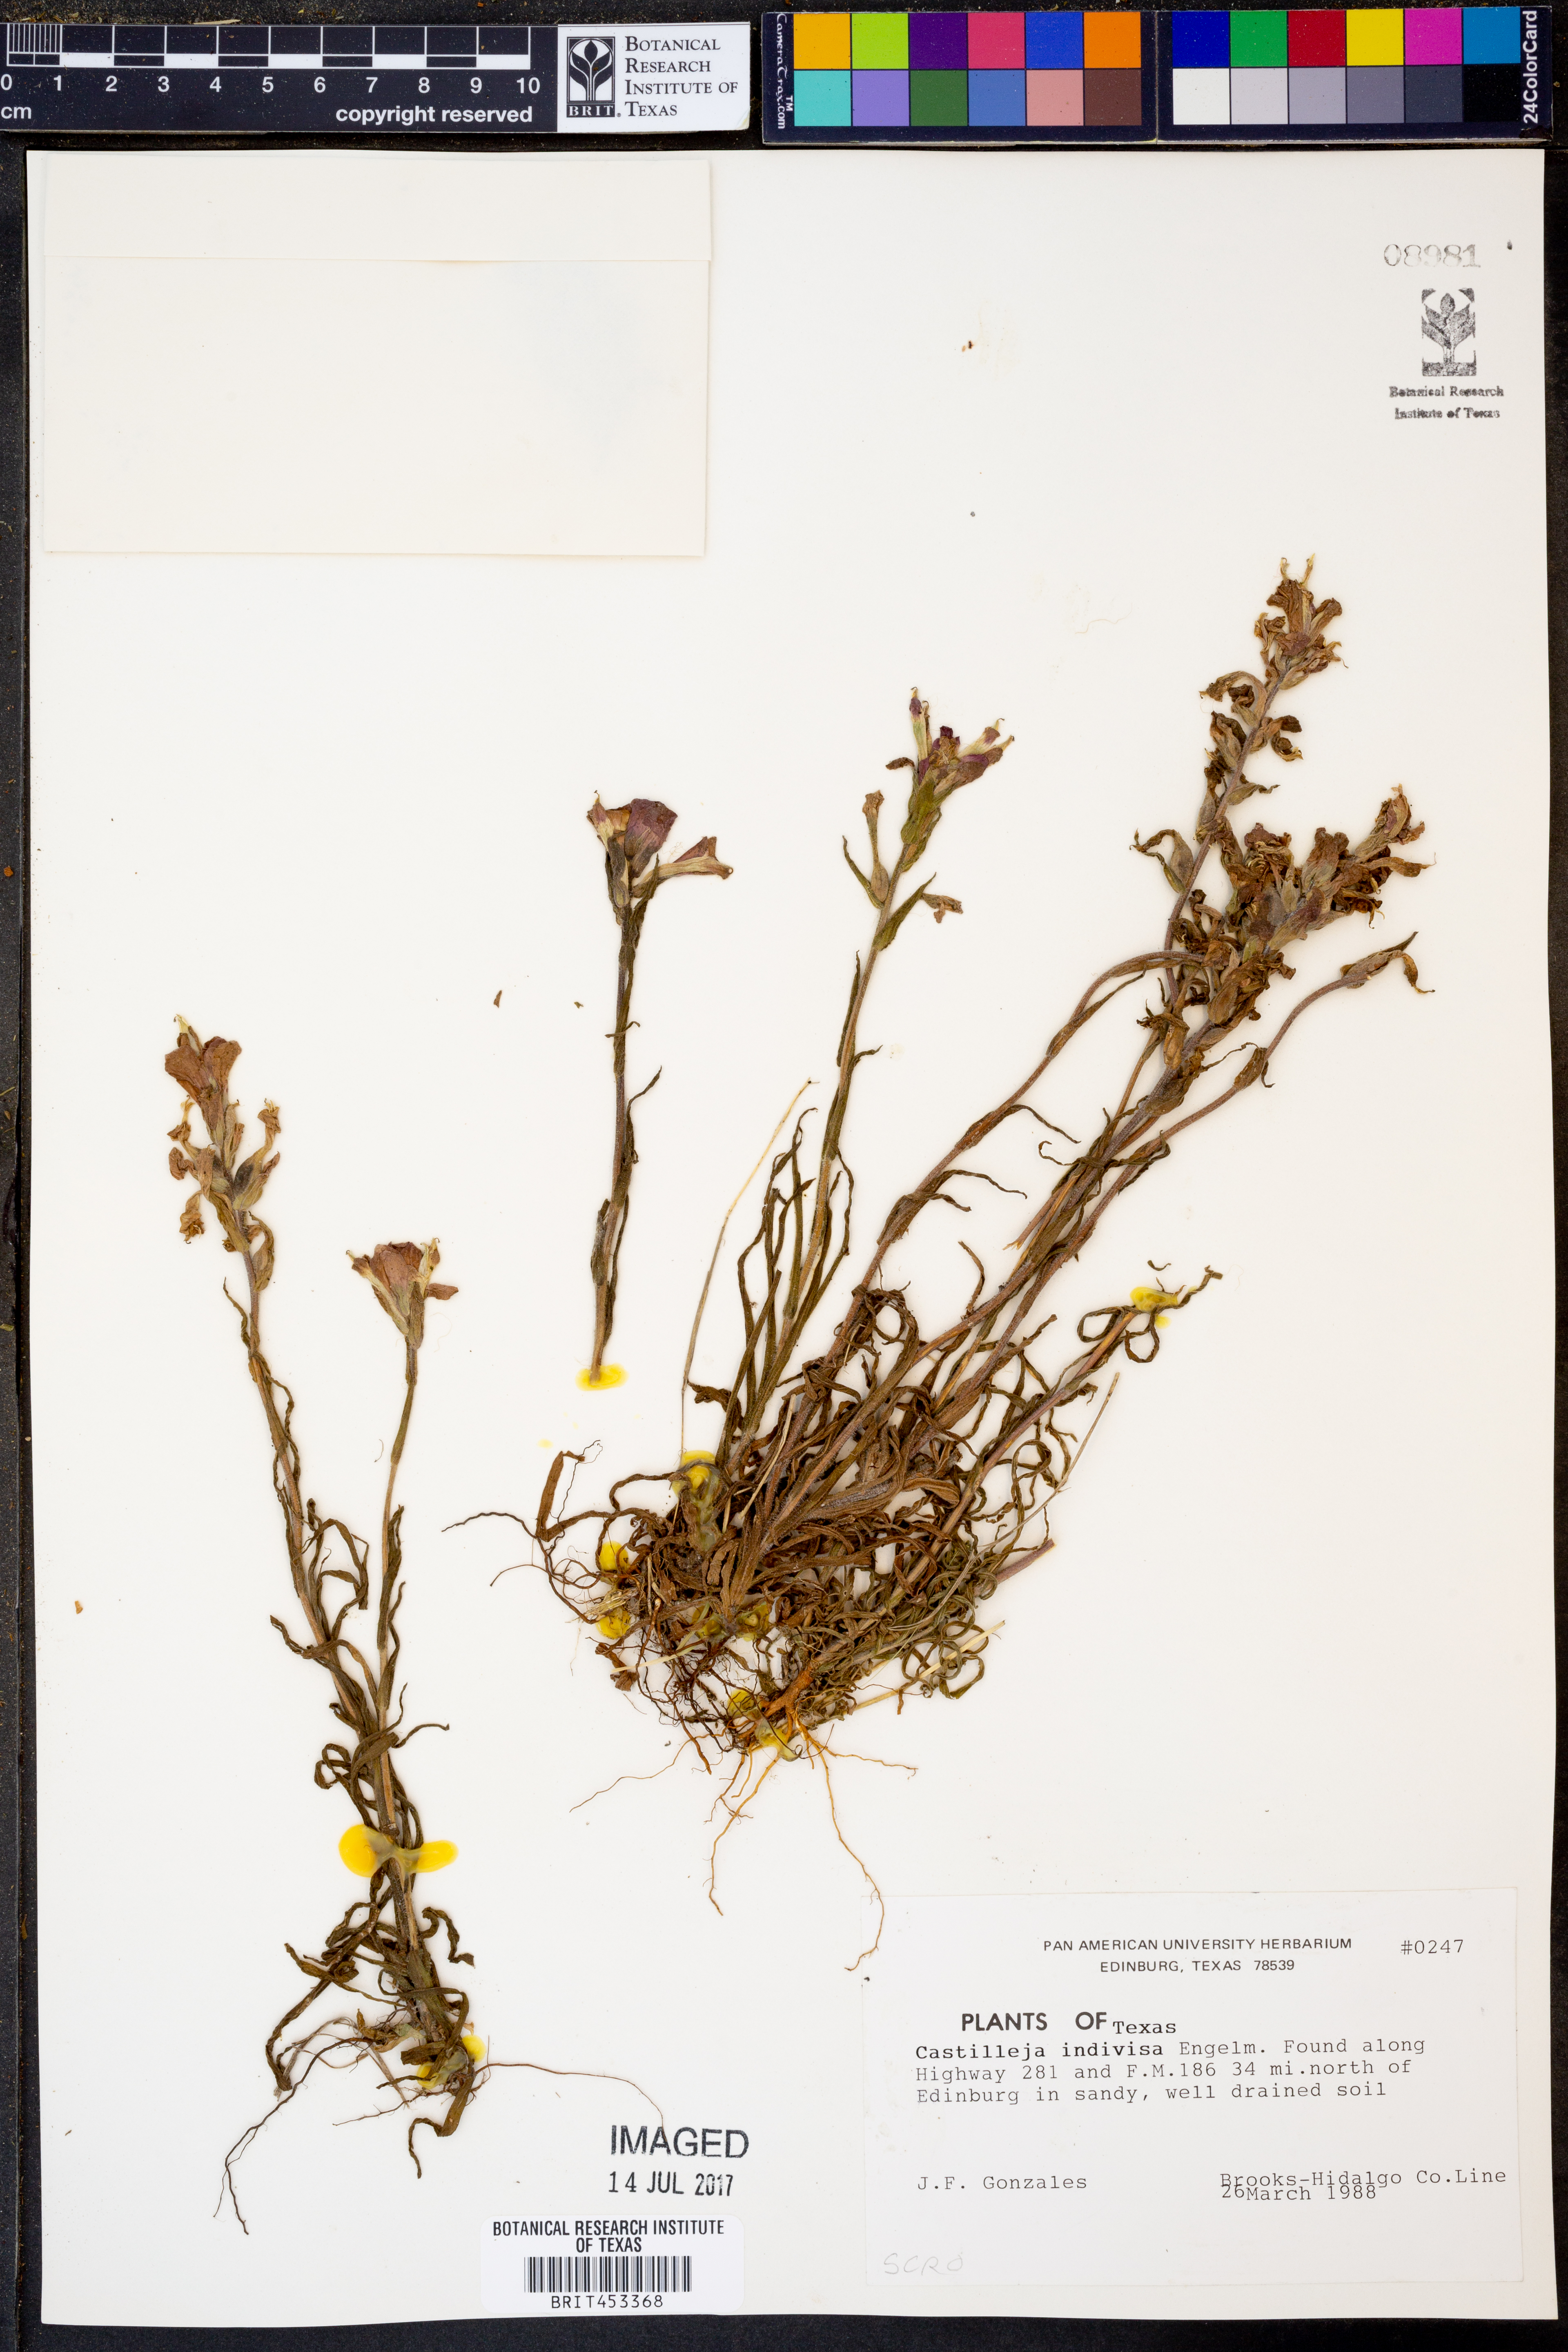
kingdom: Plantae
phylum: Tracheophyta
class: Magnoliopsida
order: Lamiales
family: Orobanchaceae
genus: Castilleja
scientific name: Castilleja indivisa
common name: Texas paintbrush
